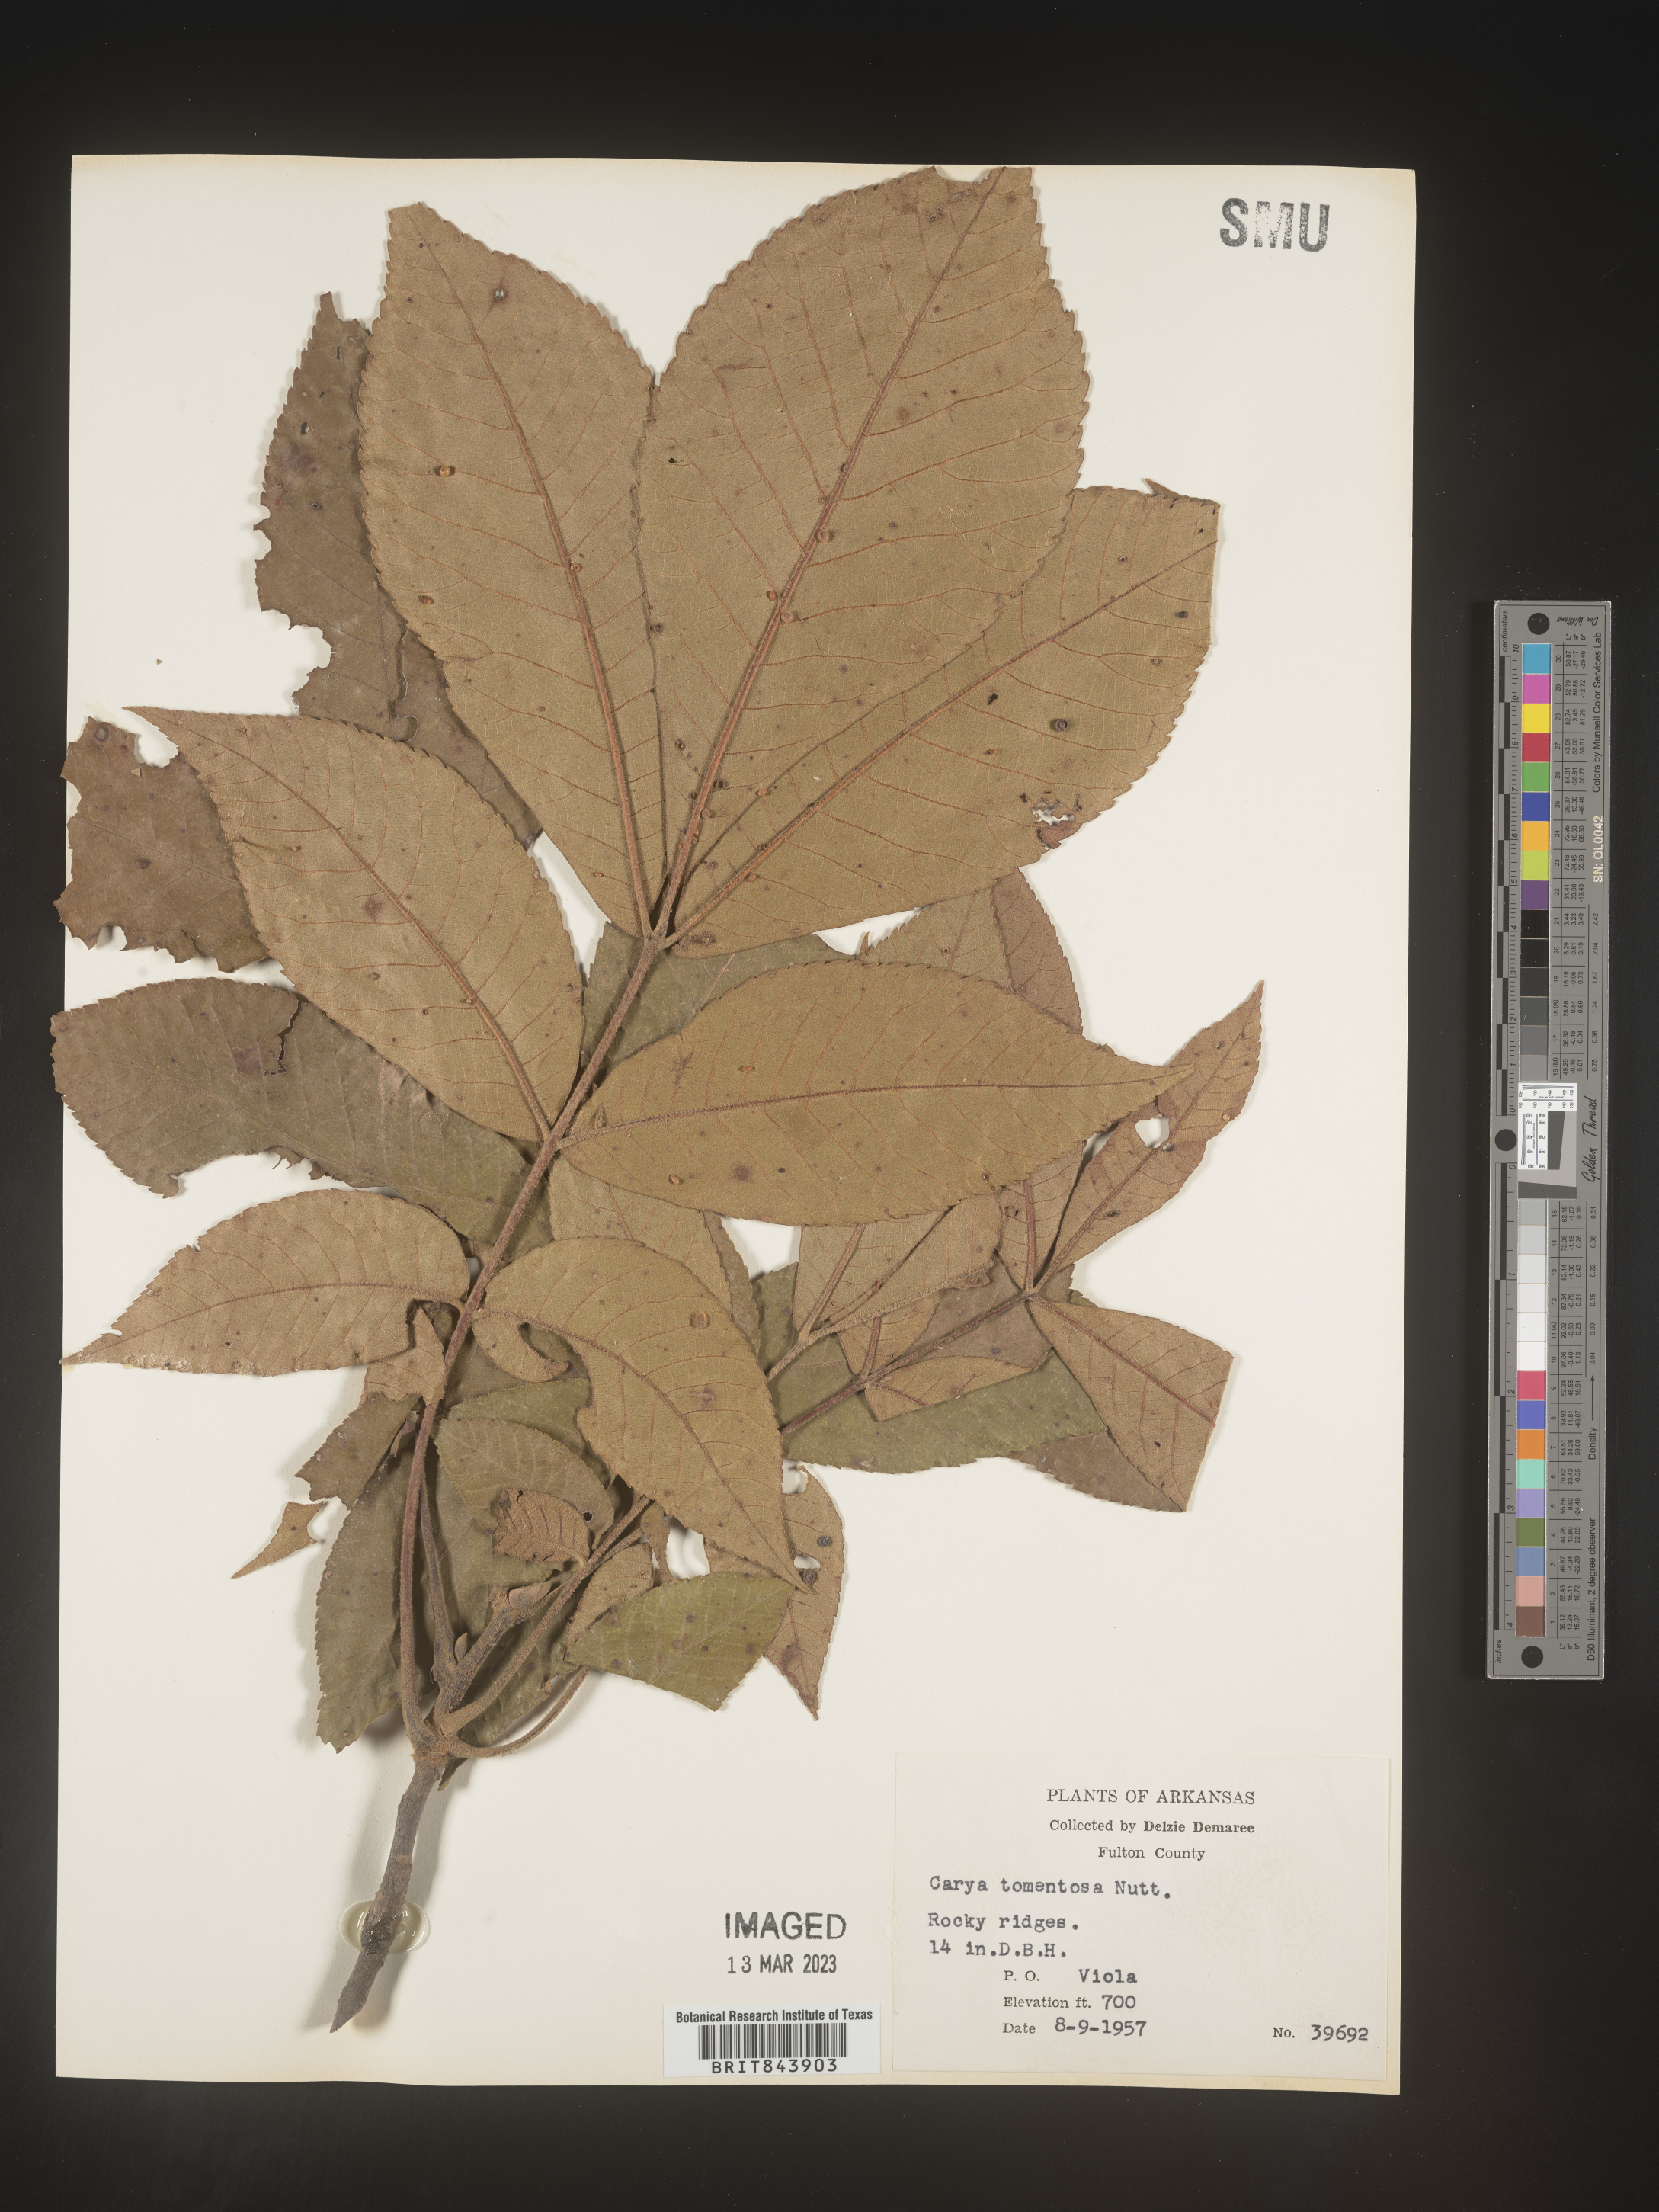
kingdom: Plantae
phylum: Tracheophyta
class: Magnoliopsida
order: Fagales
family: Juglandaceae
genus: Carya
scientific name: Carya alba
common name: Mockernut hickory
